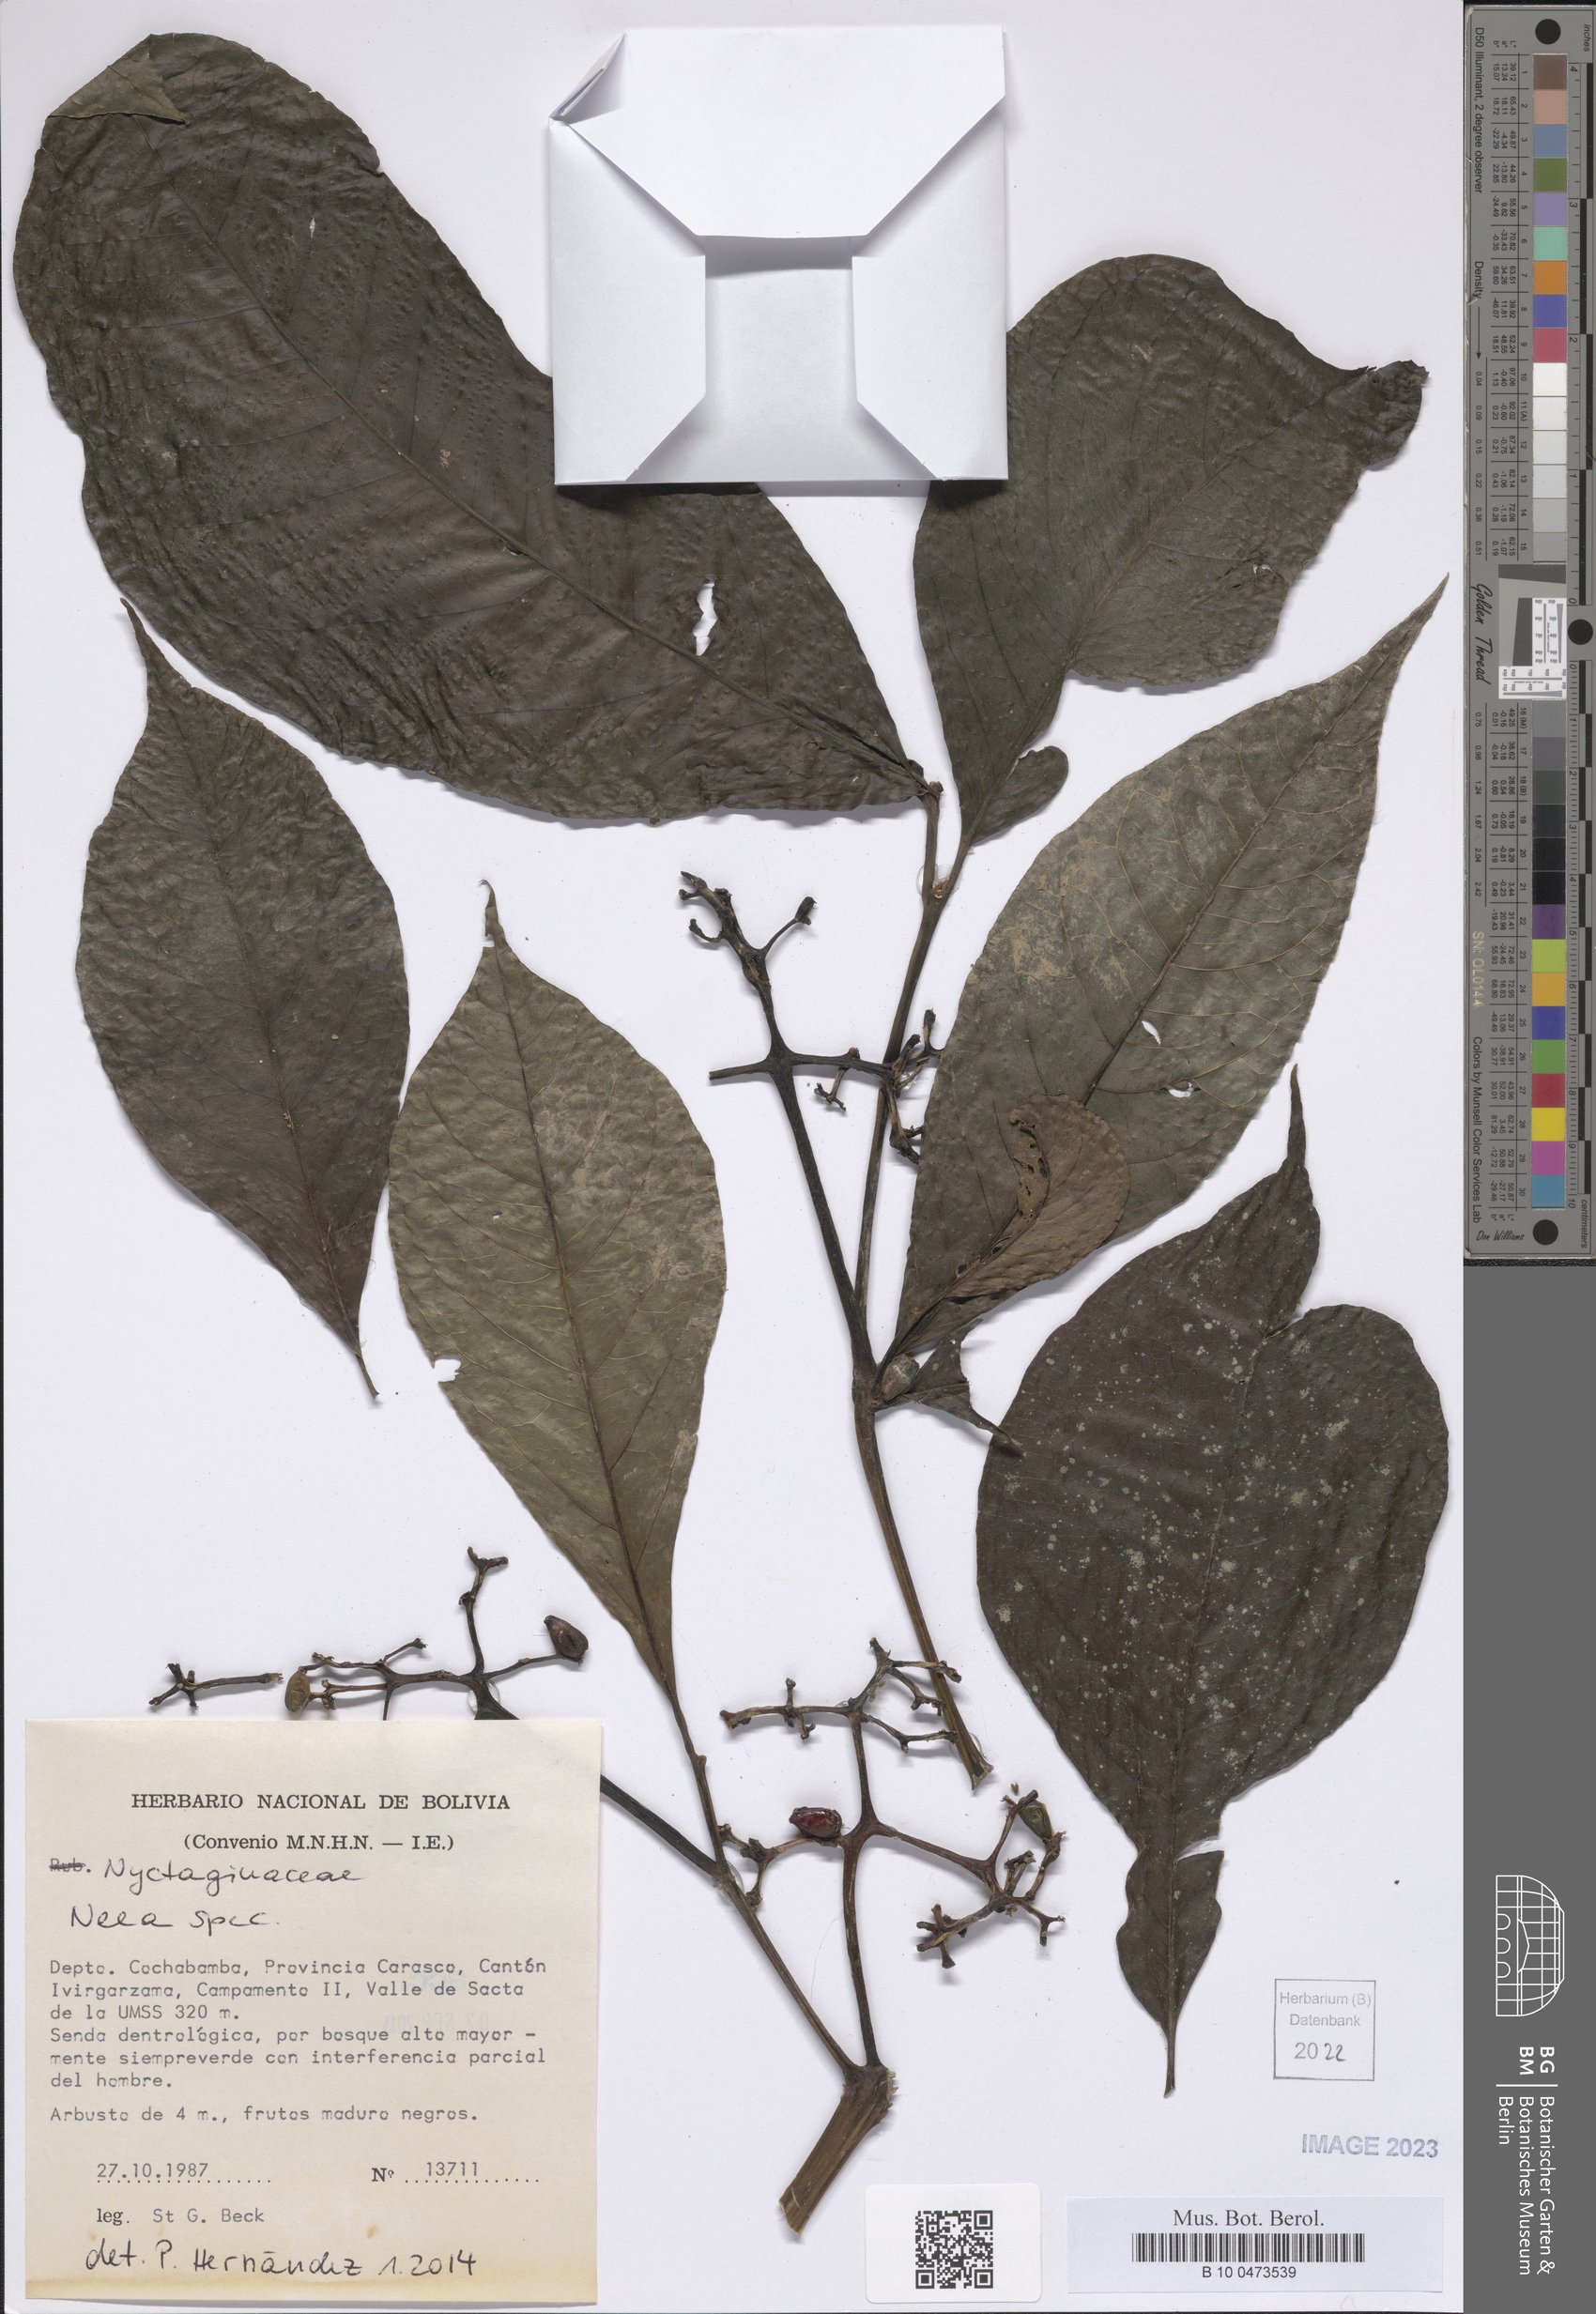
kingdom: Plantae
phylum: Tracheophyta
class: Magnoliopsida
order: Caryophyllales
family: Nyctaginaceae
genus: Neea
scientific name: Neea
